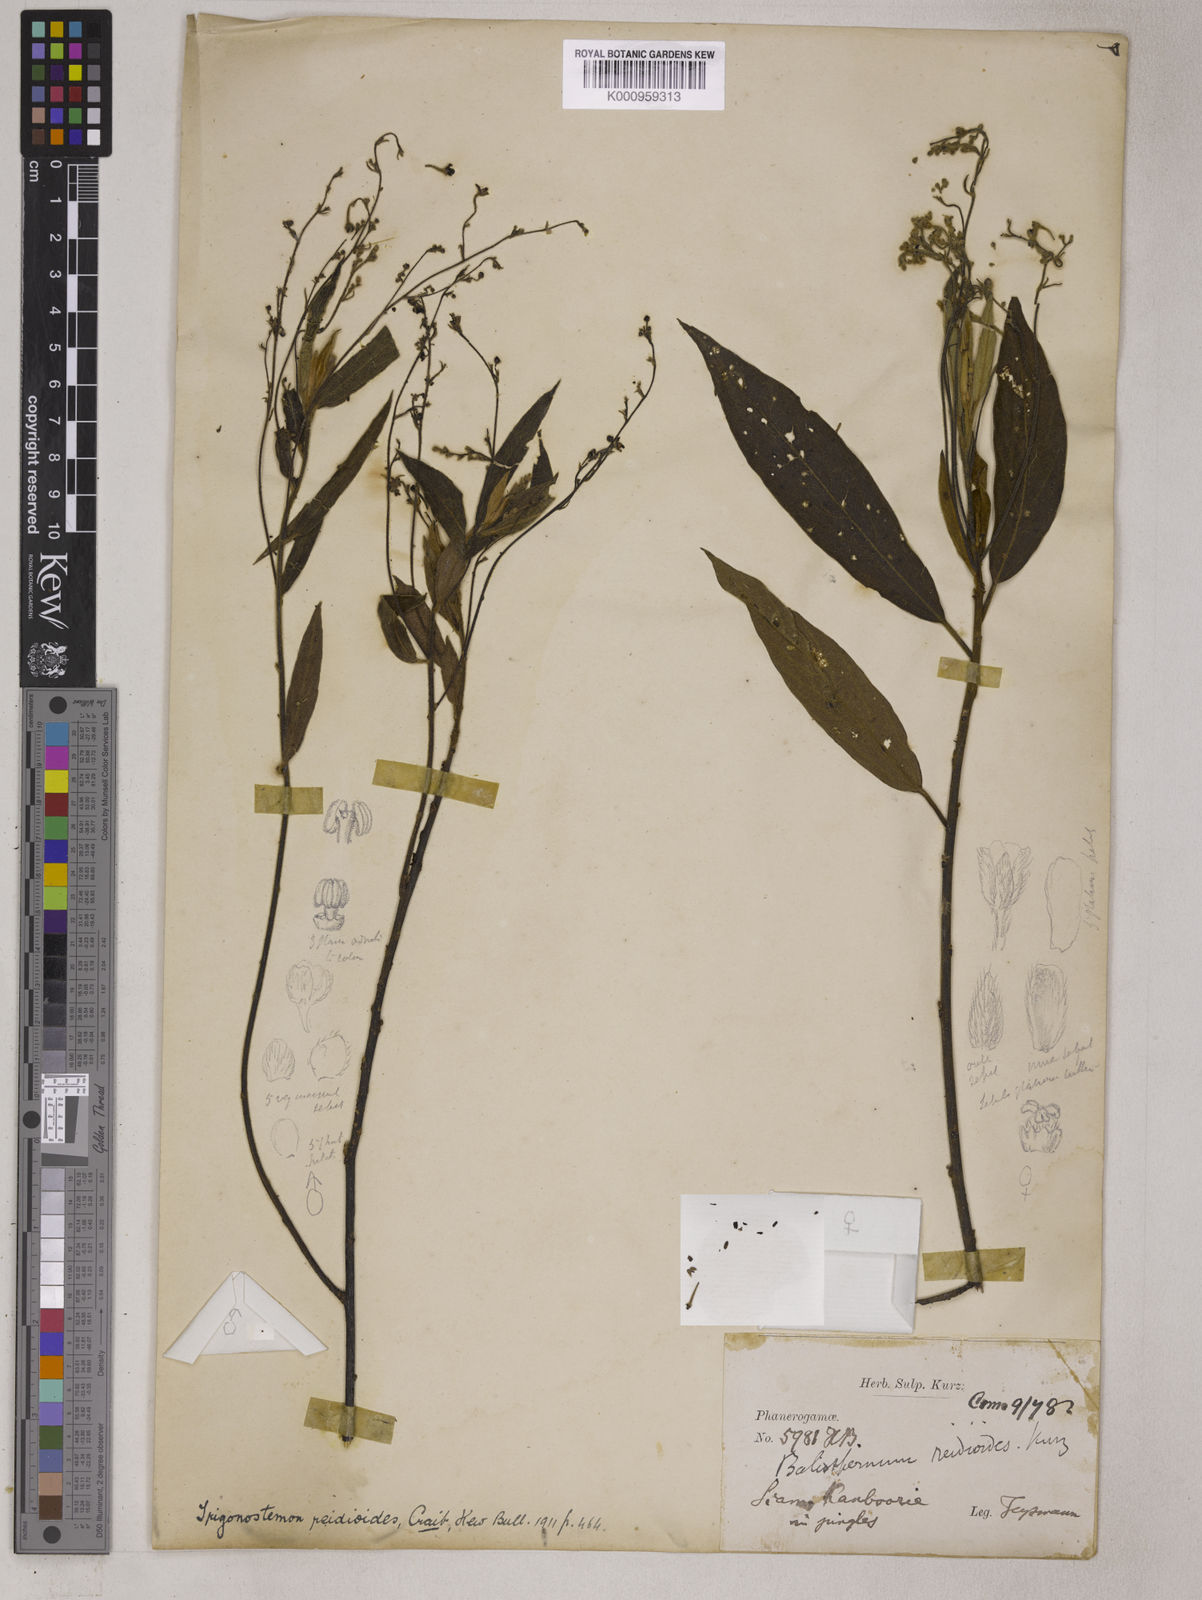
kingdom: Plantae
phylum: Tracheophyta
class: Magnoliopsida
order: Malpighiales
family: Euphorbiaceae
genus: Trigonostemon
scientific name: Trigonostemon reidioides
